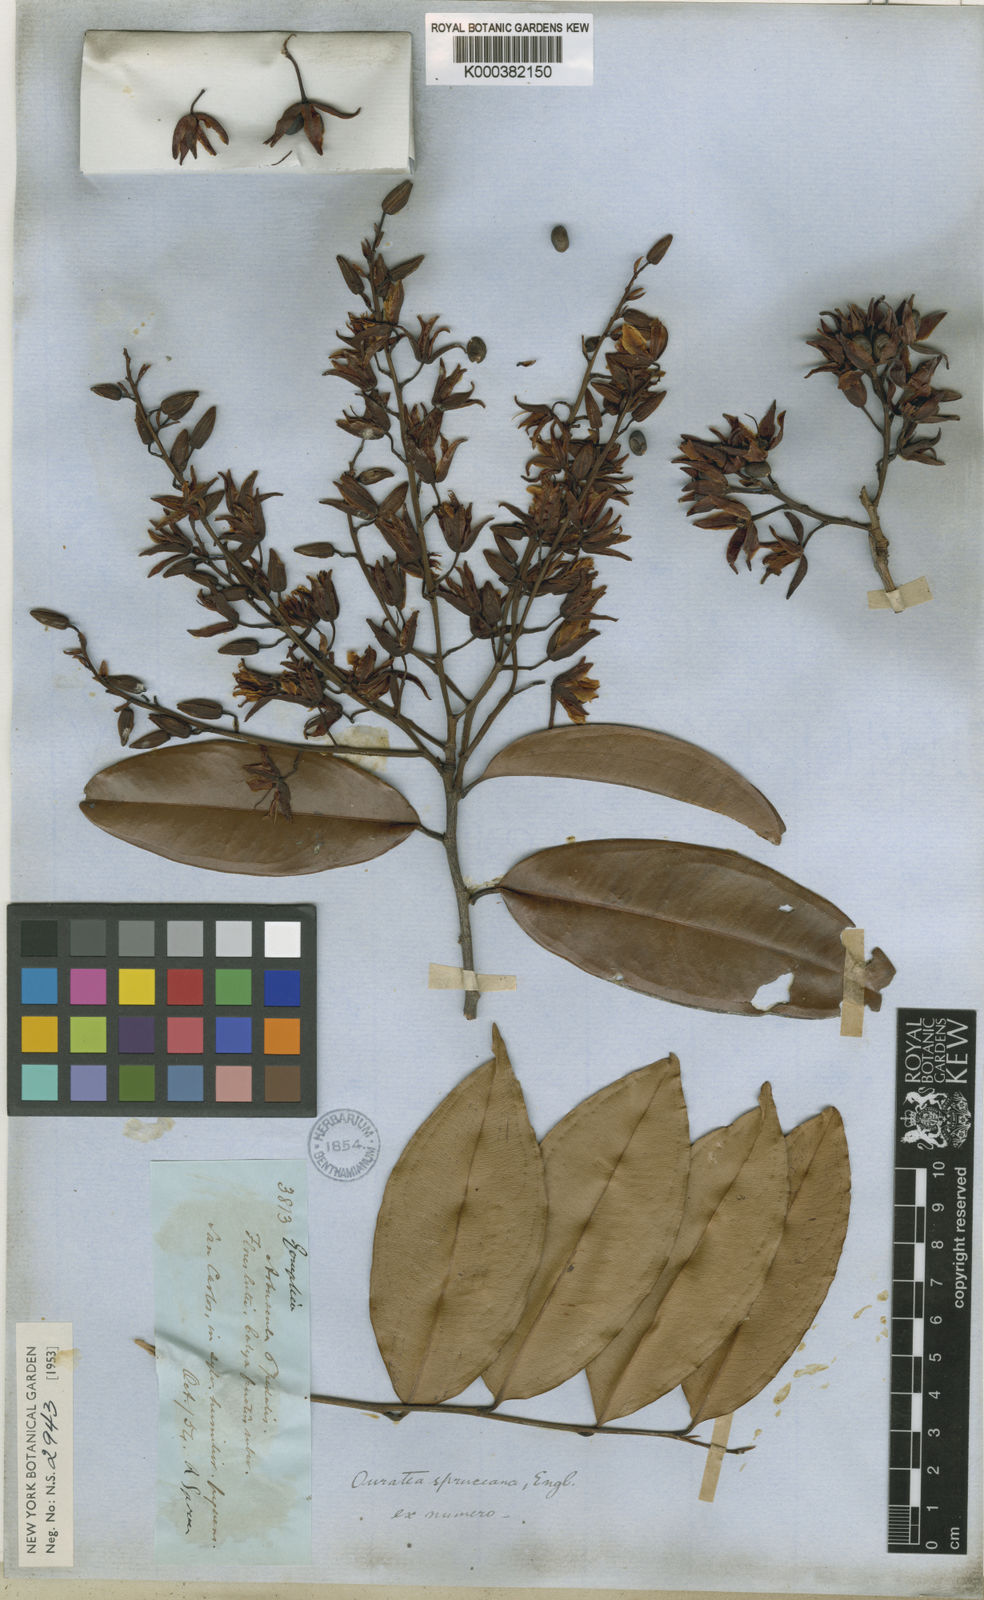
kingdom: Plantae
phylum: Tracheophyta
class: Magnoliopsida
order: Malpighiales
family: Ochnaceae
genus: Ouratea
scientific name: Ouratea spruceana
